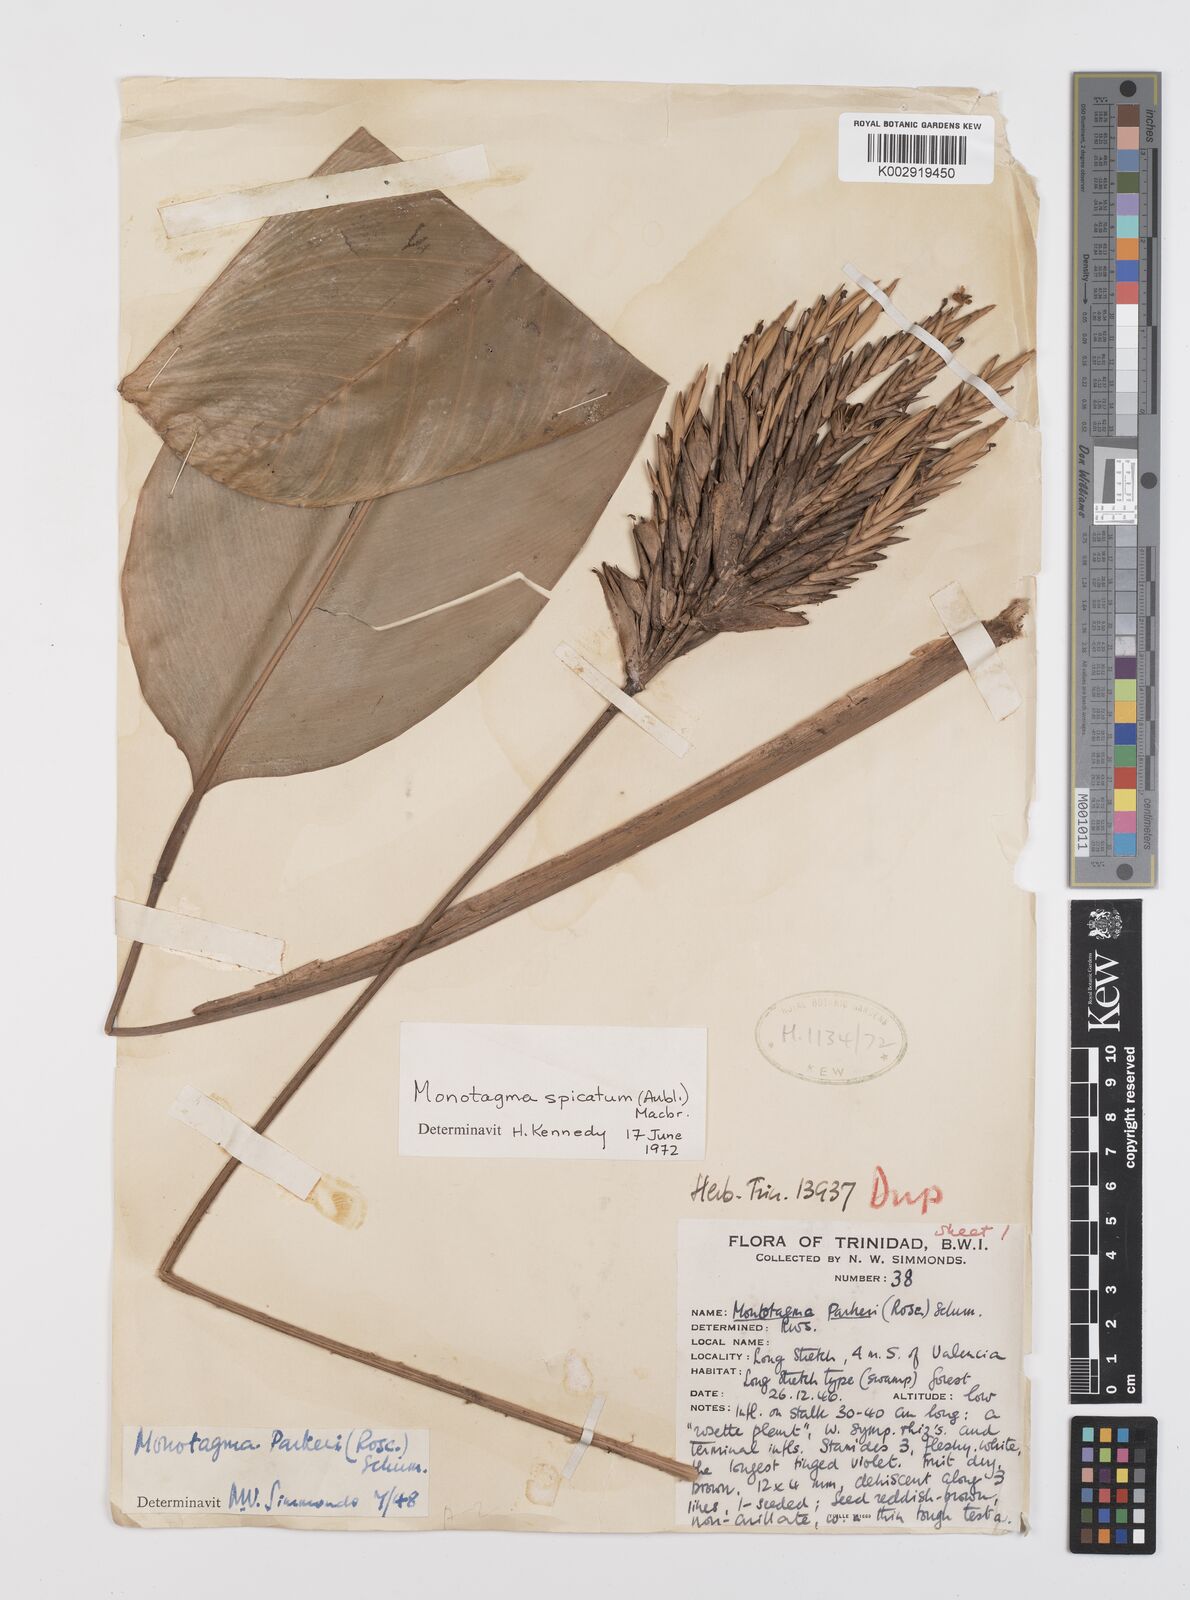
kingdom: Plantae
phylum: Tracheophyta
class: Liliopsida
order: Zingiberales
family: Marantaceae
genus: Monotagma
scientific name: Monotagma spicatum
